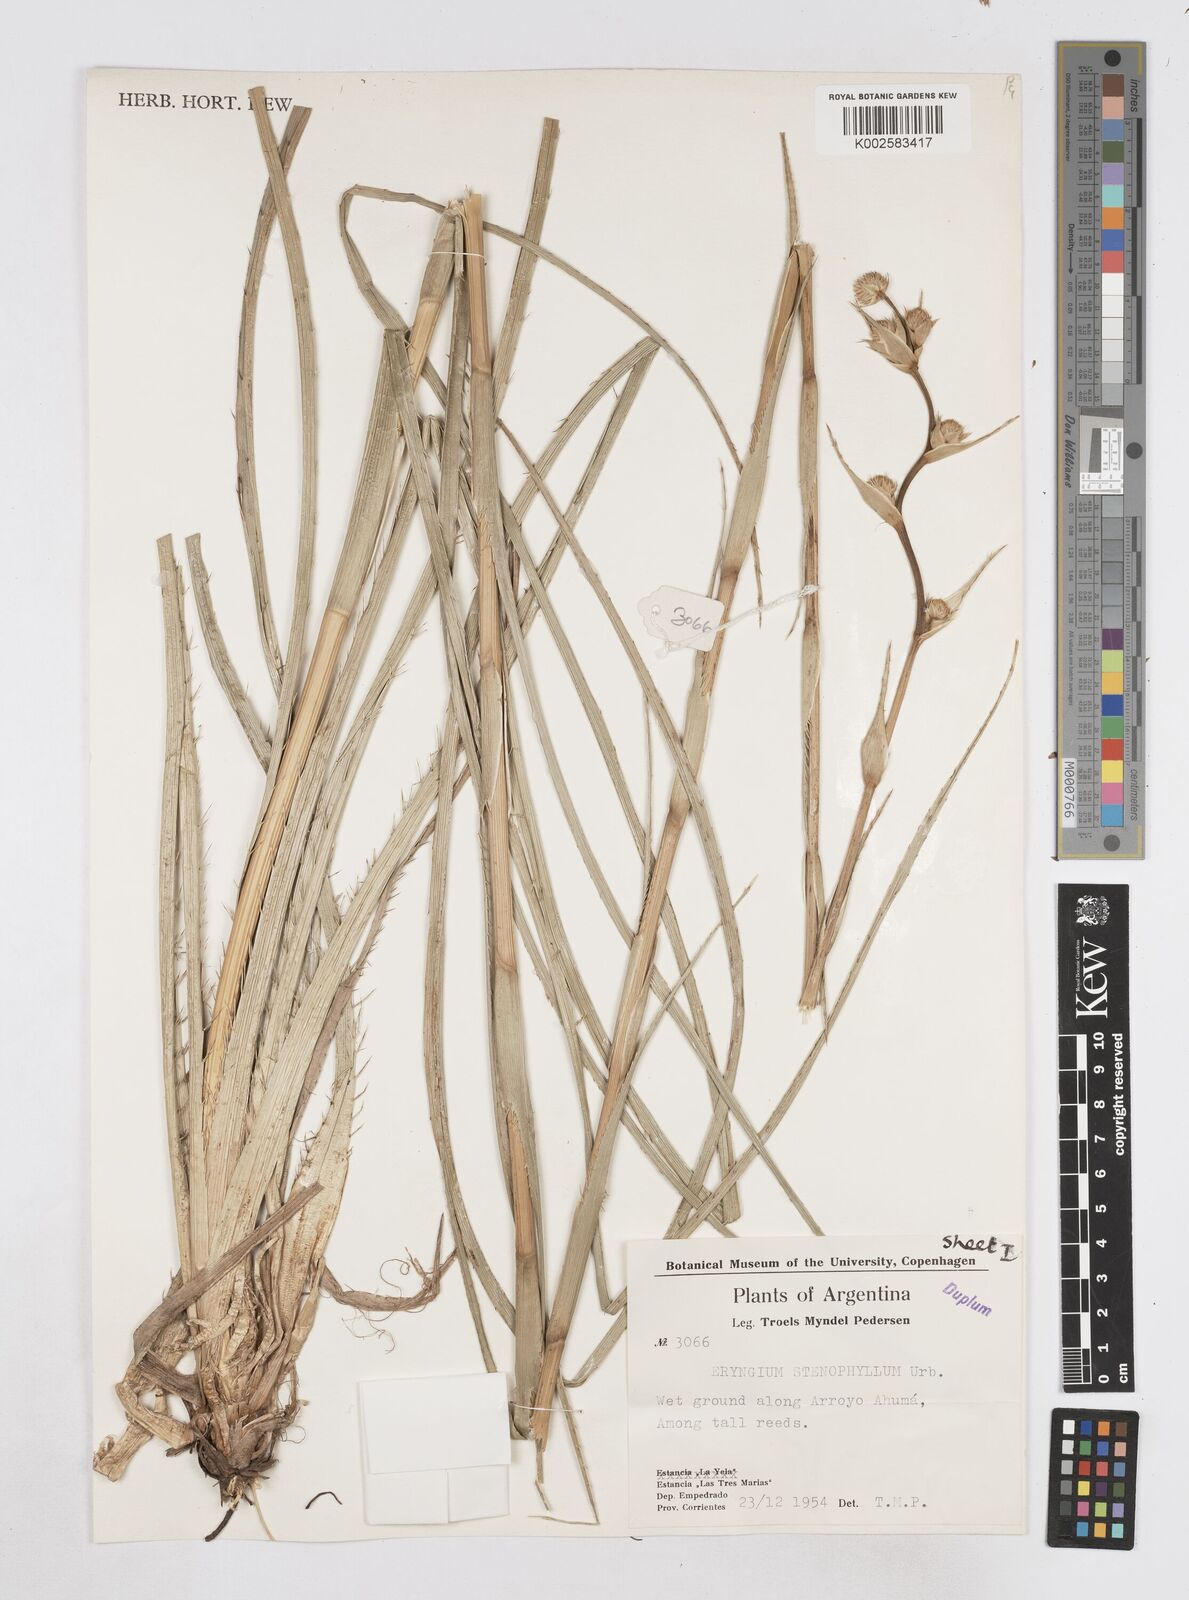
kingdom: Plantae
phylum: Tracheophyta
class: Magnoliopsida
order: Apiales
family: Apiaceae
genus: Eryngium
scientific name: Eryngium stenophyllum
